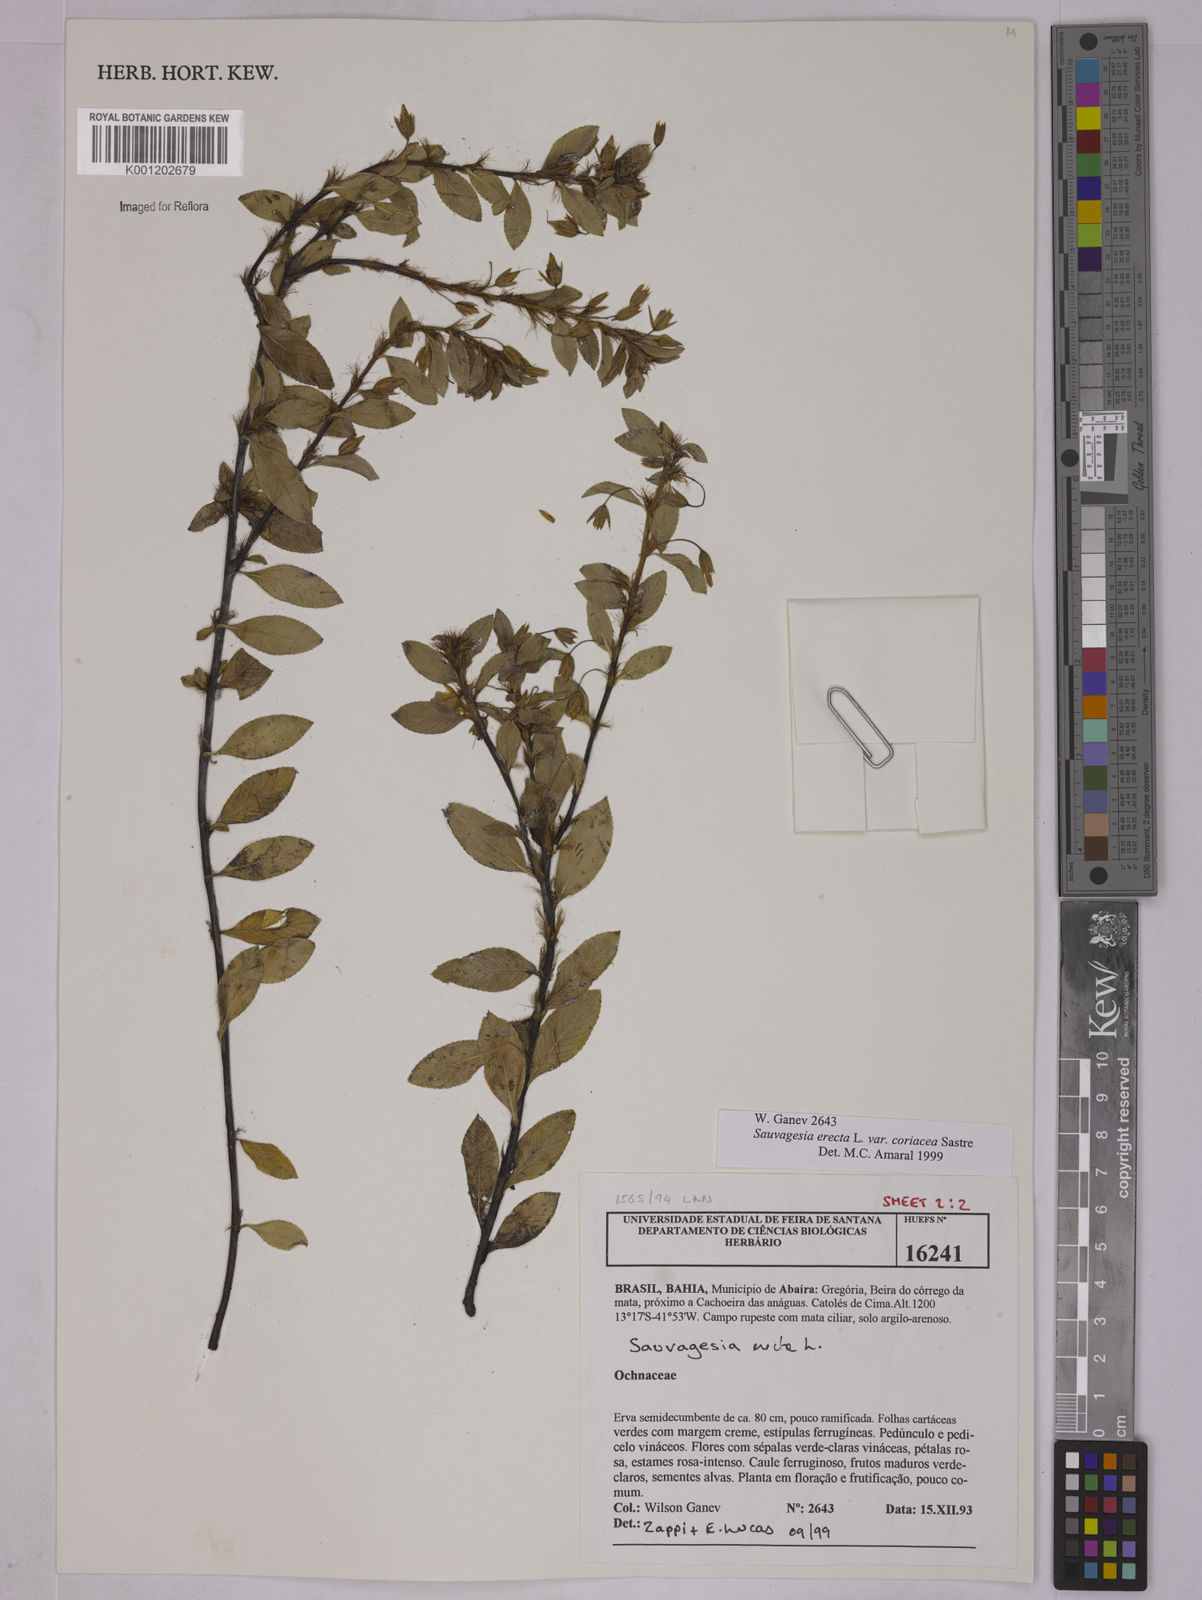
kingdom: Plantae
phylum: Tracheophyta
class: Magnoliopsida
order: Malpighiales
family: Ochnaceae
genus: Sauvagesia
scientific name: Sauvagesia erecta
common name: Creole tea
